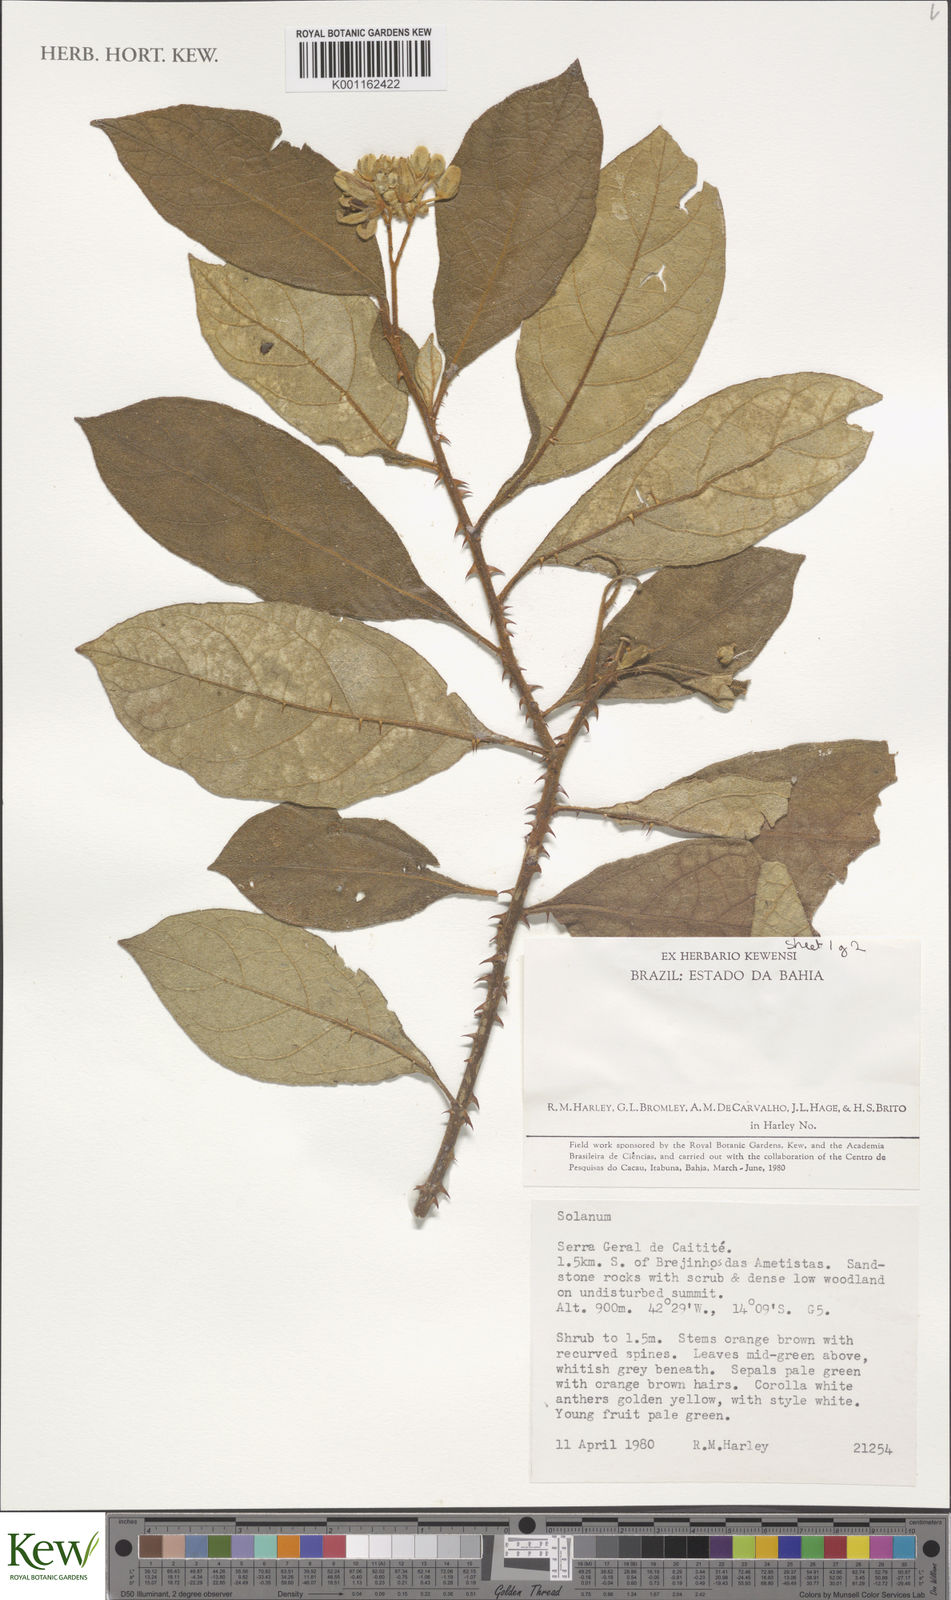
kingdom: Plantae
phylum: Tracheophyta
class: Magnoliopsida
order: Solanales
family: Solanaceae
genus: Solanum
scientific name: Solanum rhytidoandrum
